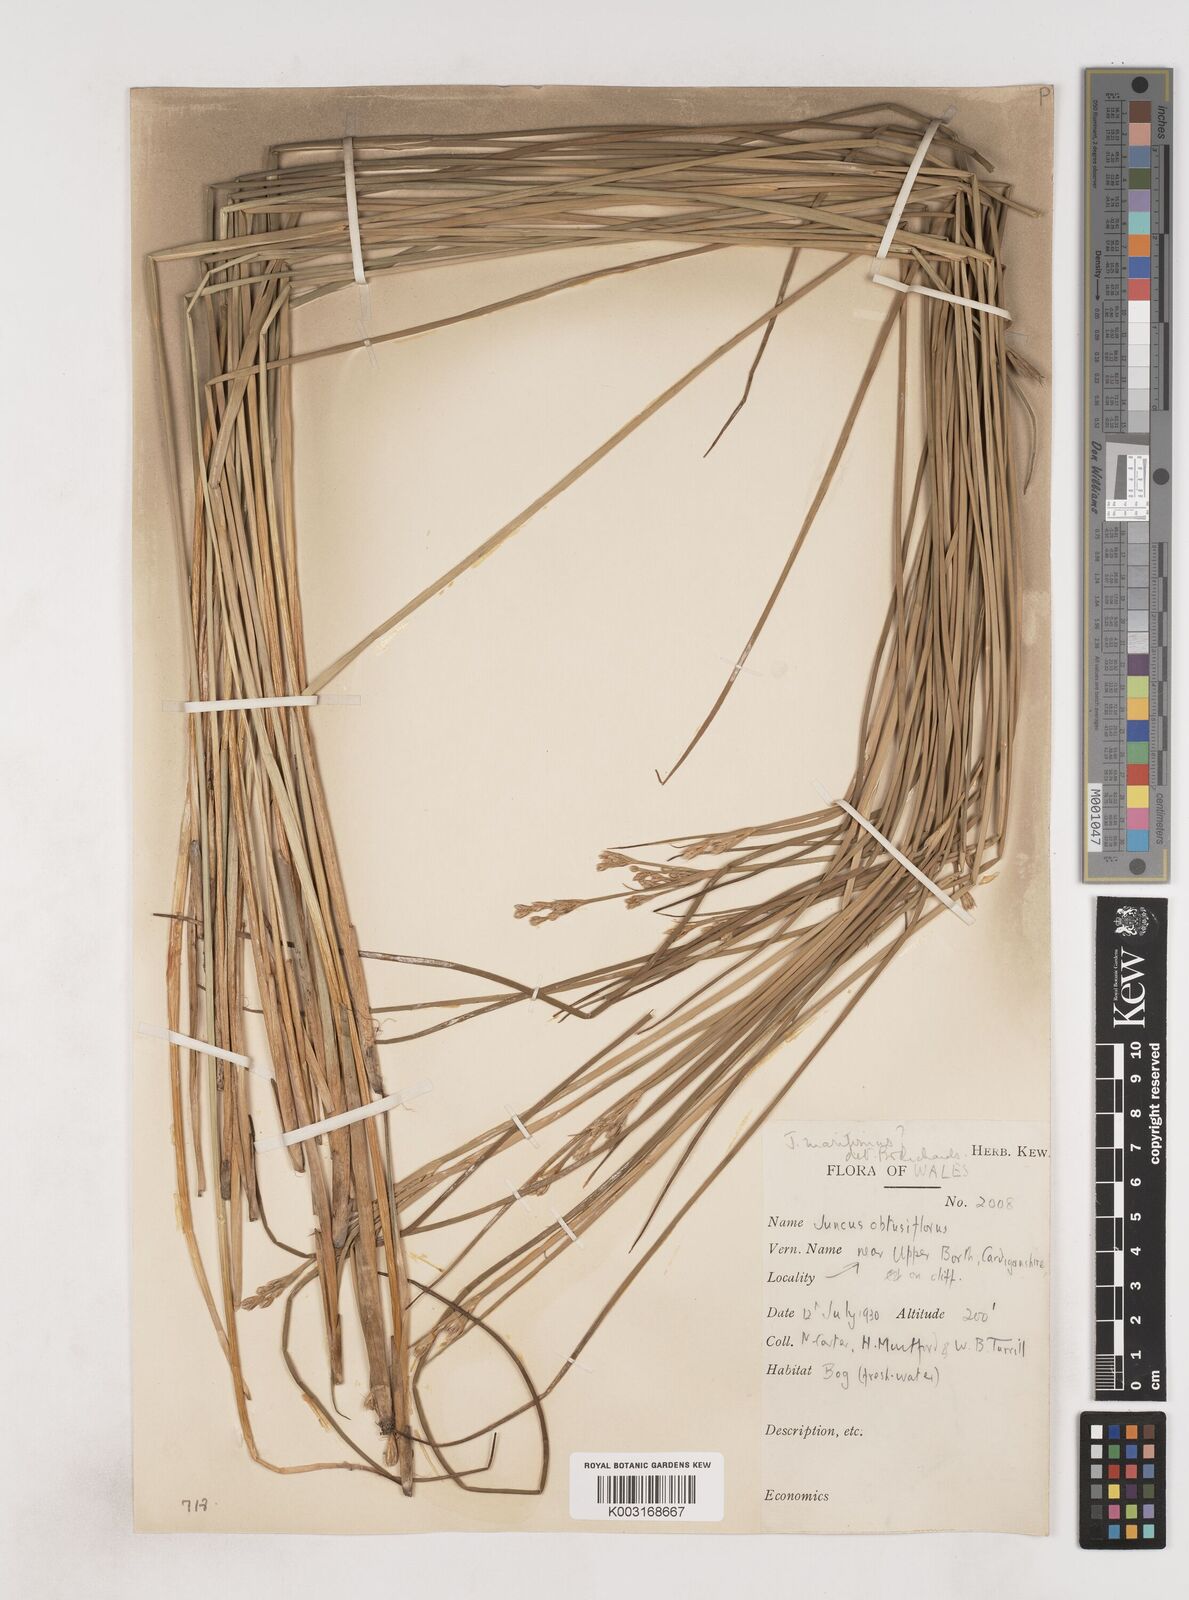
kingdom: Plantae
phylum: Tracheophyta
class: Liliopsida
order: Poales
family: Juncaceae
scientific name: Juncaceae
